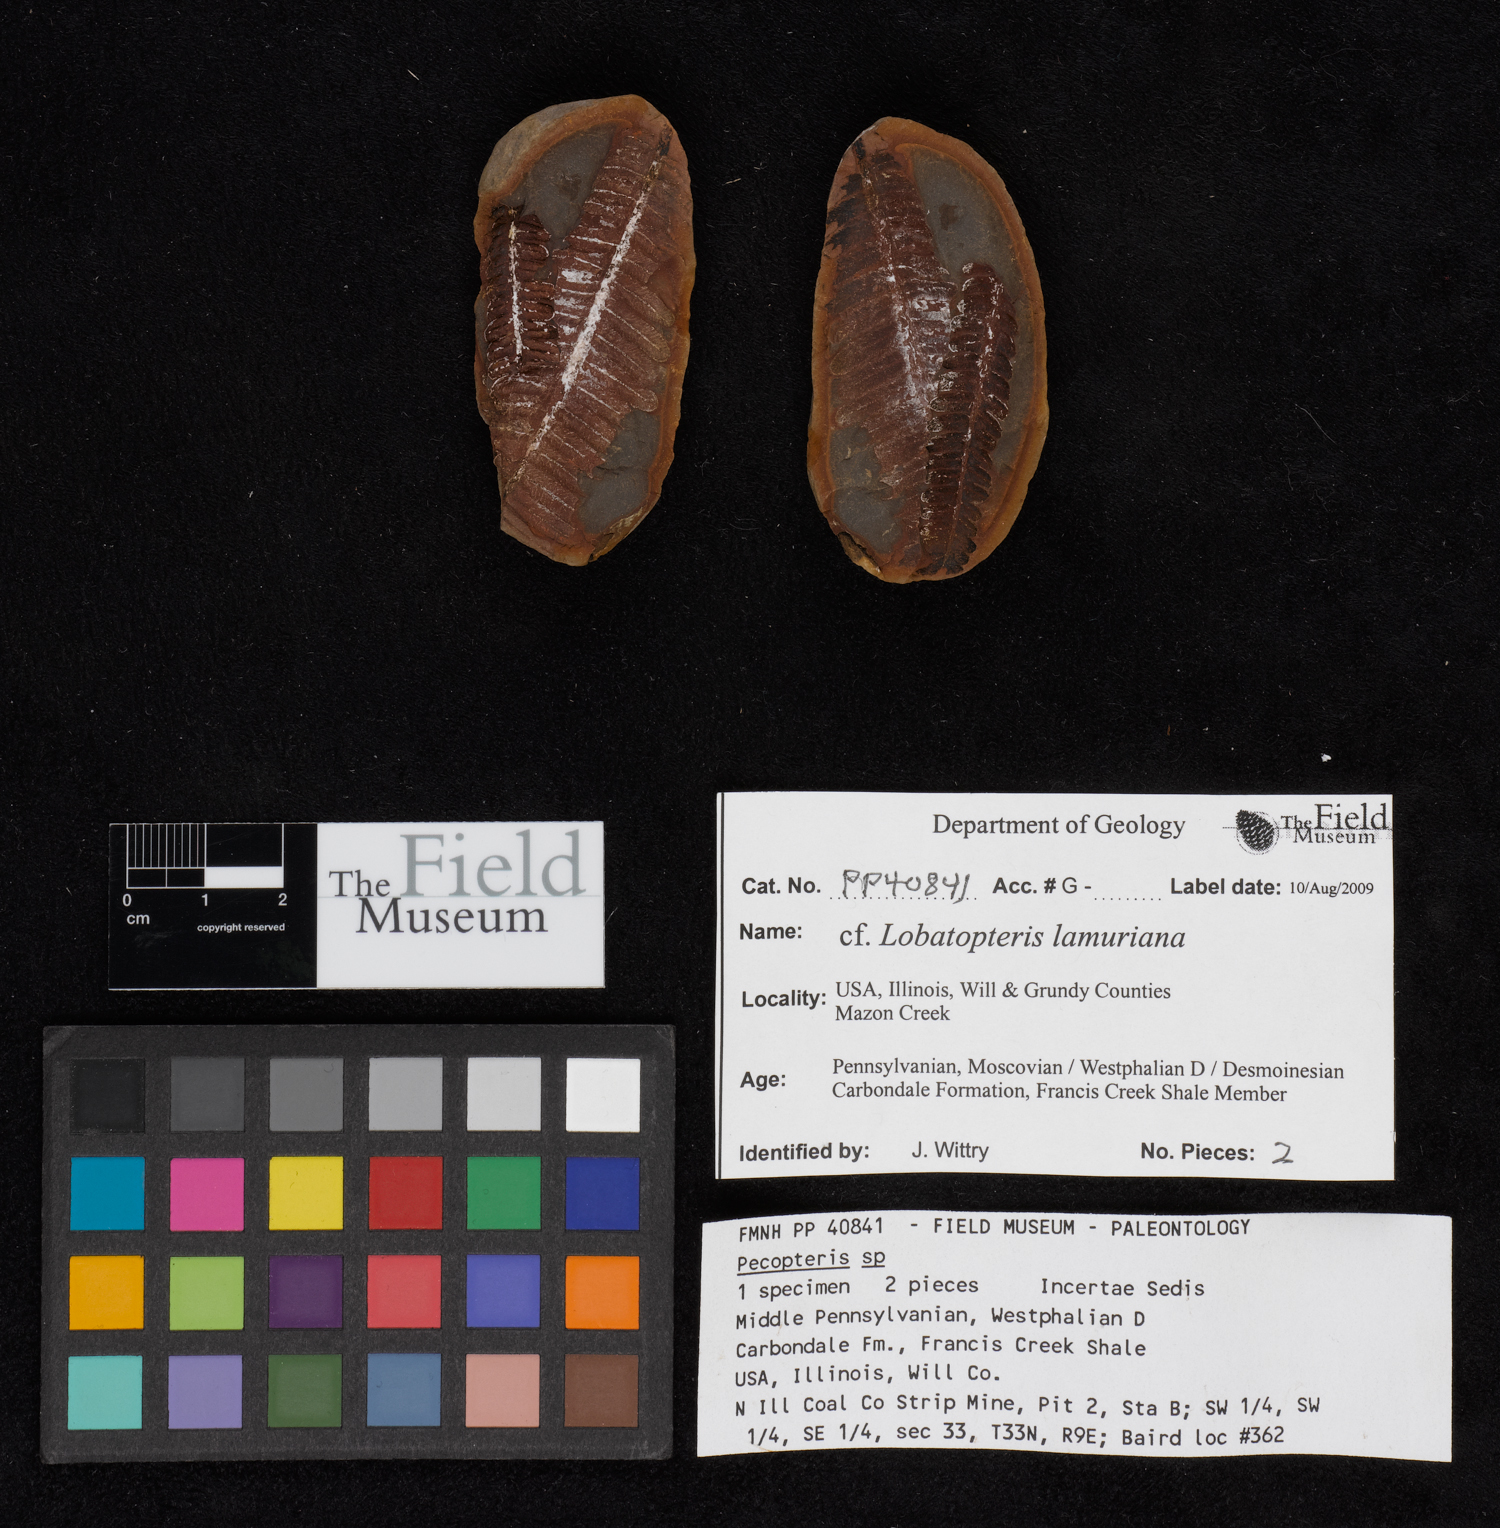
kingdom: Plantae
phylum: Tracheophyta
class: Polypodiopsida
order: Marattiales
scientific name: Marattiales
